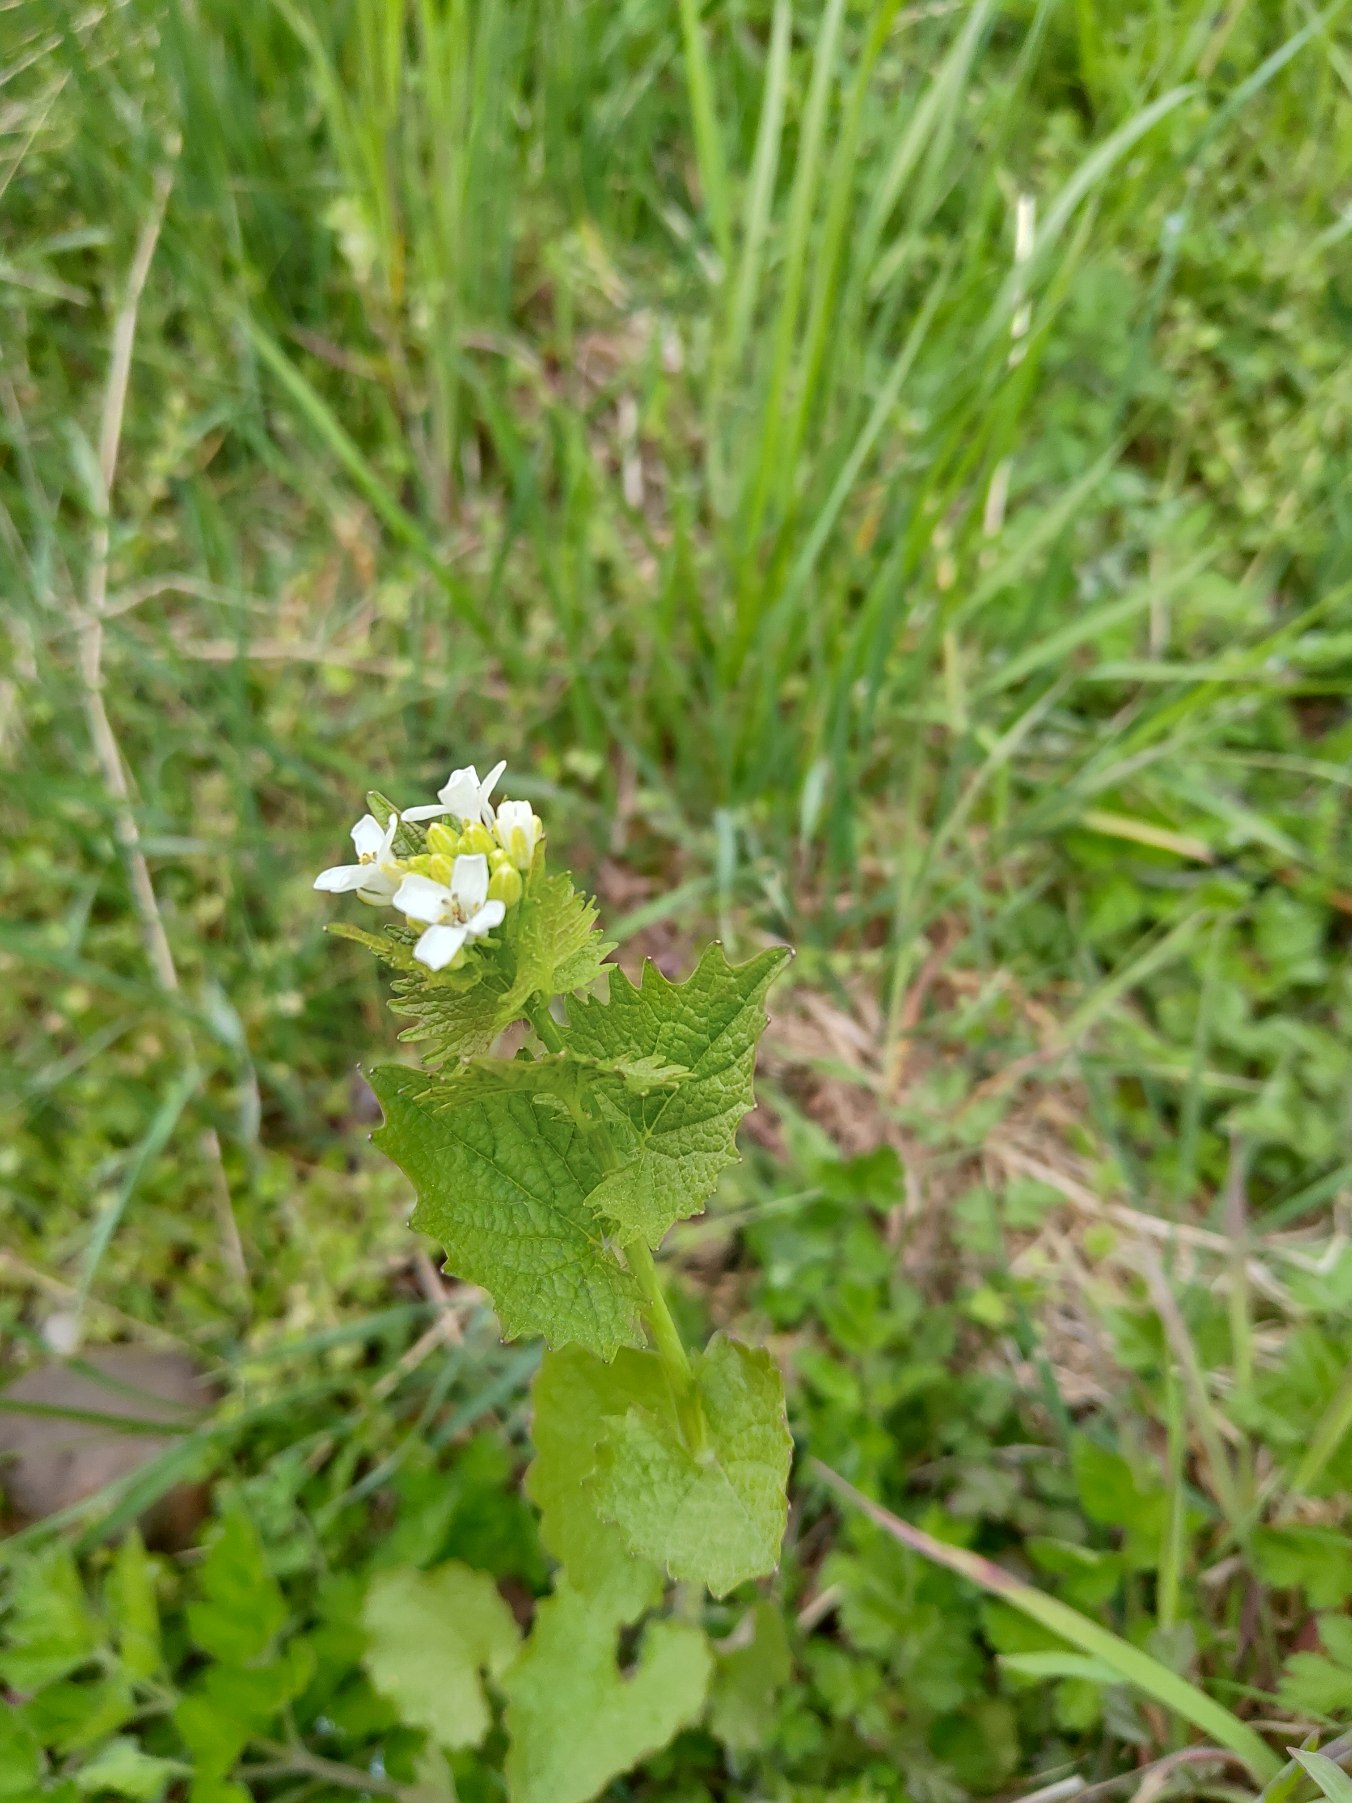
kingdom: Plantae
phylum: Tracheophyta
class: Magnoliopsida
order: Brassicales
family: Brassicaceae
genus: Alliaria
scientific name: Alliaria petiolata
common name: Løgkarse
